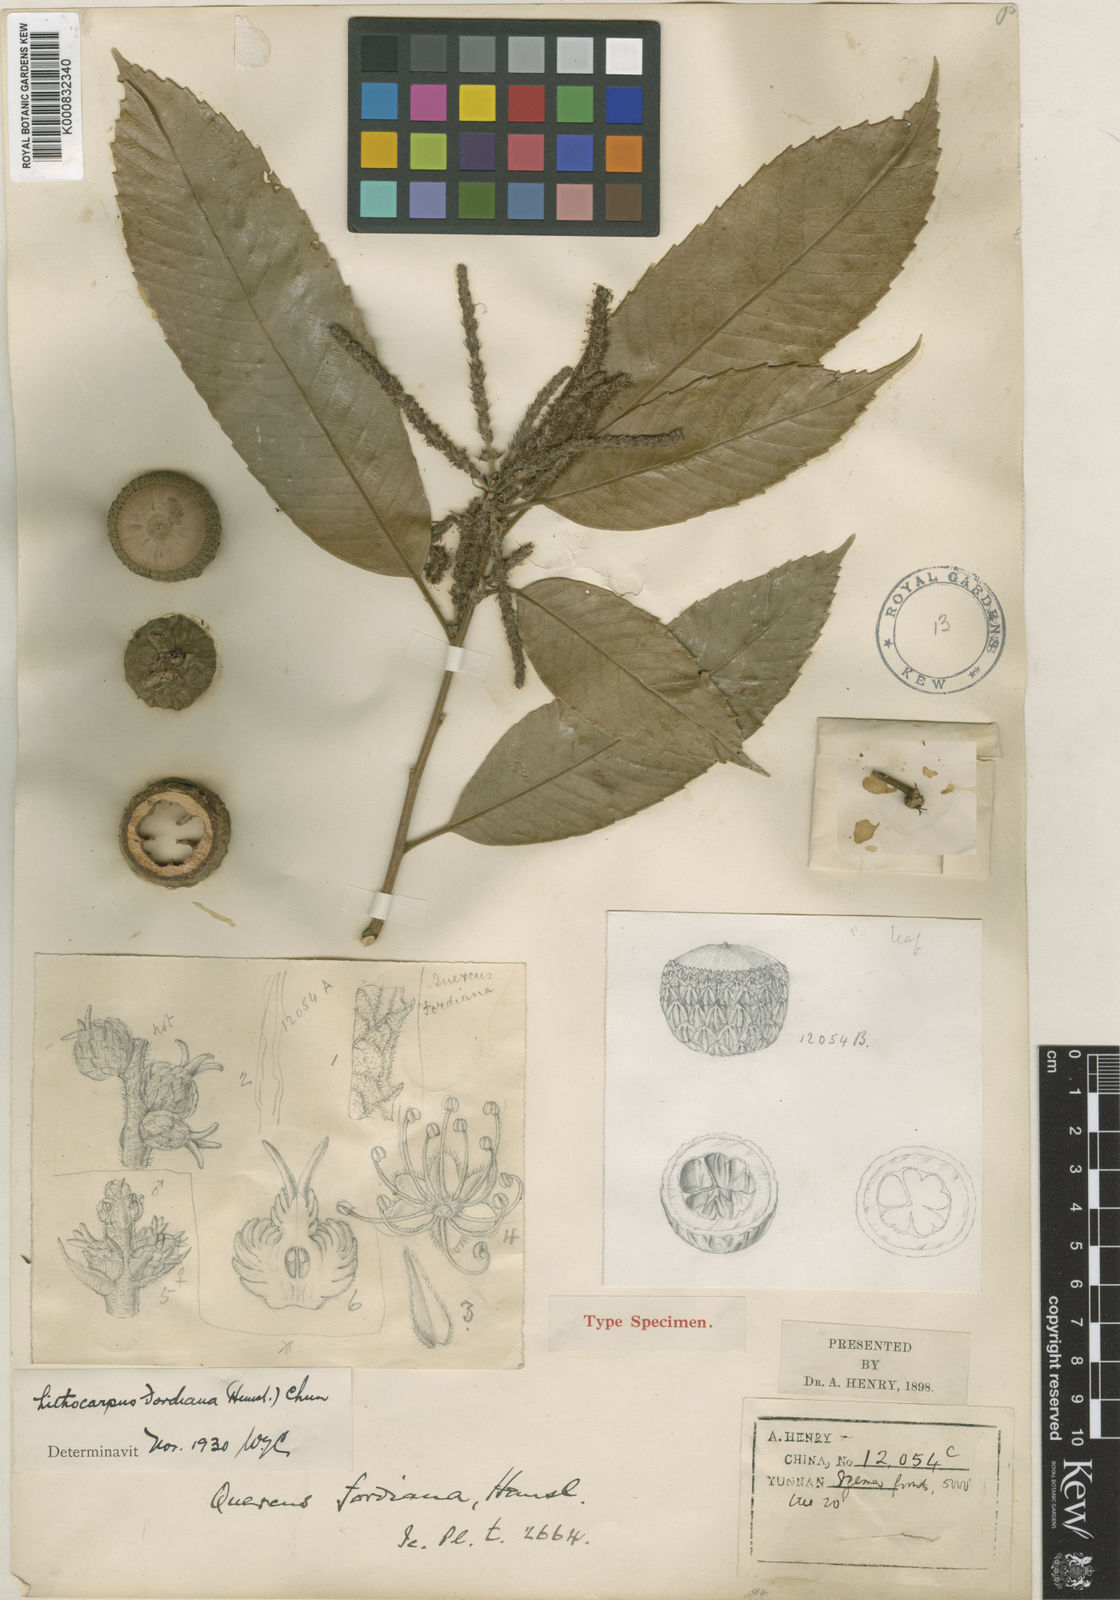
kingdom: Plantae
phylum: Tracheophyta
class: Magnoliopsida
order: Fagales
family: Fagaceae
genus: Lithocarpus
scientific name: Lithocarpus fordianus
